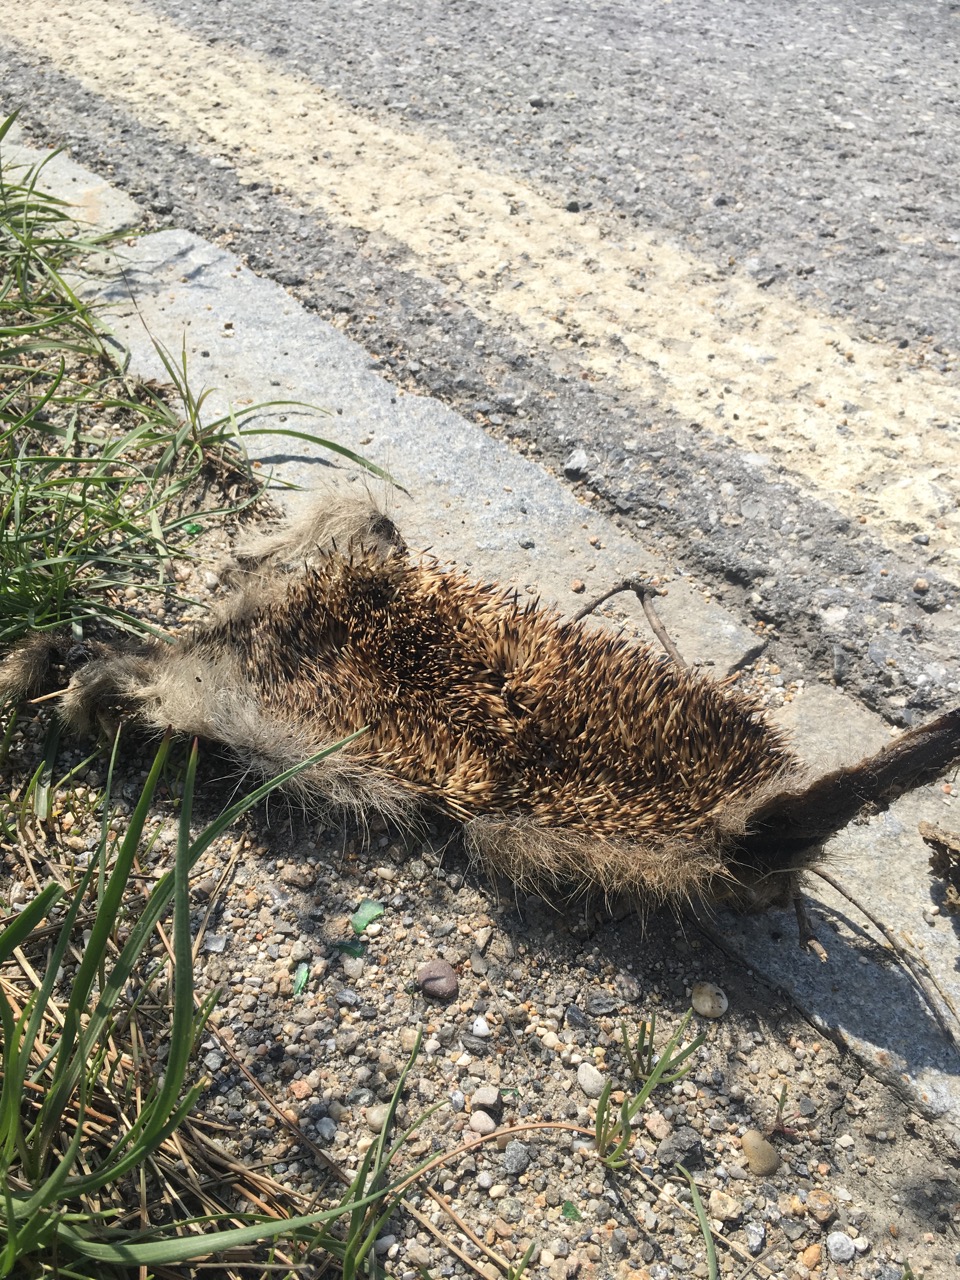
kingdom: Animalia
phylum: Chordata
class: Mammalia
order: Erinaceomorpha
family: Erinaceidae
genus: Erinaceus
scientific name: Erinaceus
